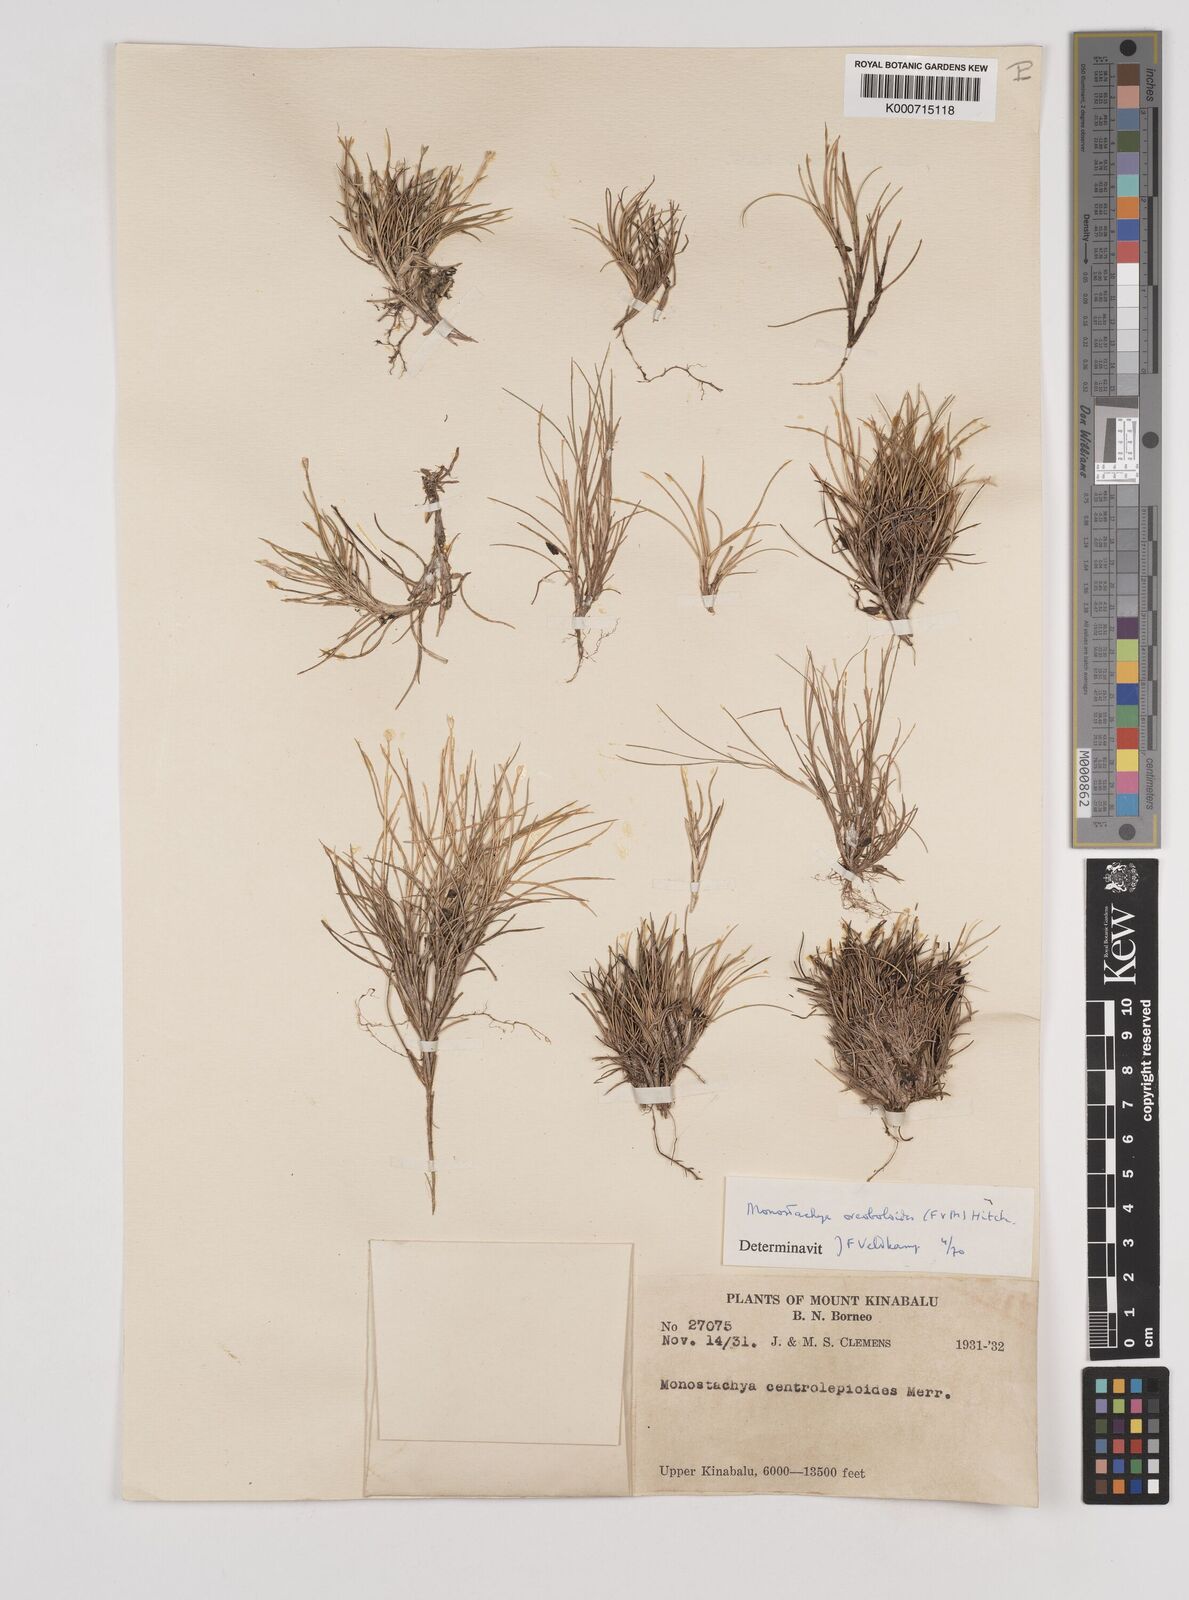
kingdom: Plantae
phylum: Tracheophyta
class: Liliopsida
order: Poales
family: Poaceae
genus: Rytidosperma
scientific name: Rytidosperma oreoboloides
